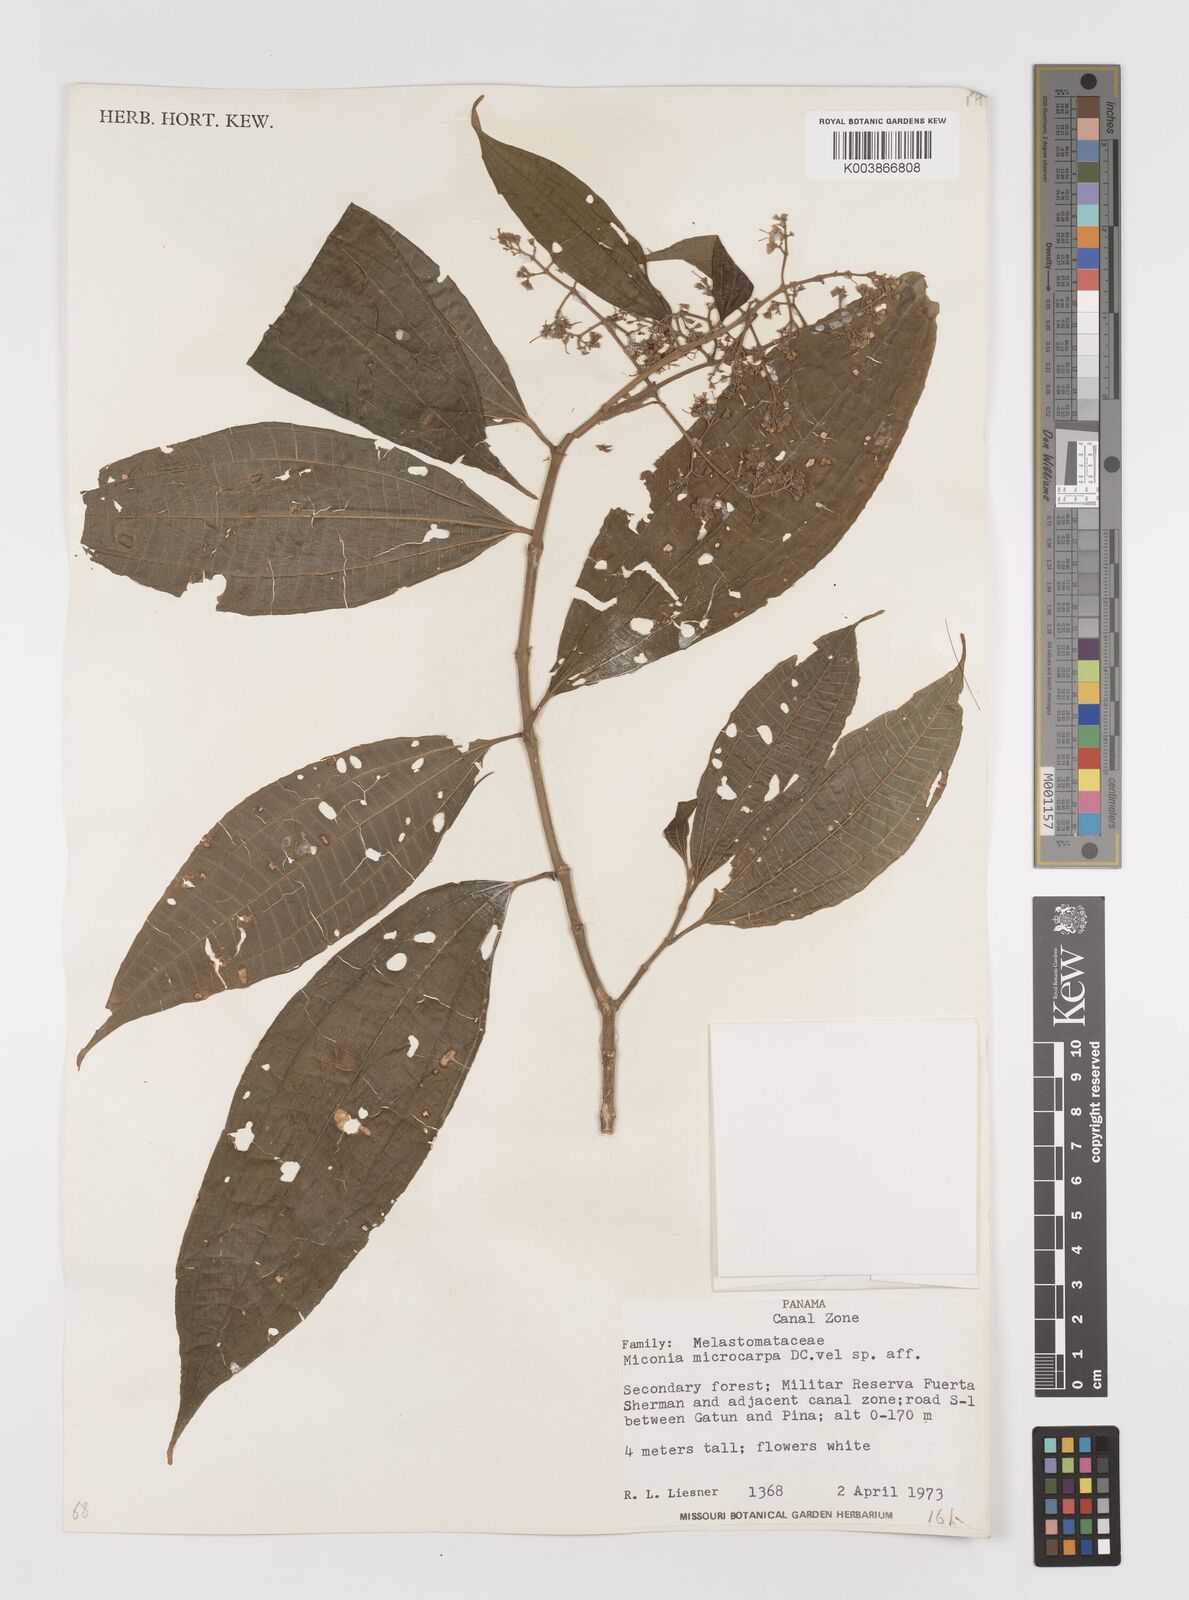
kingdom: Plantae
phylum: Tracheophyta
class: Magnoliopsida
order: Myrtales
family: Melastomataceae
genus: Miconia
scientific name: Miconia
